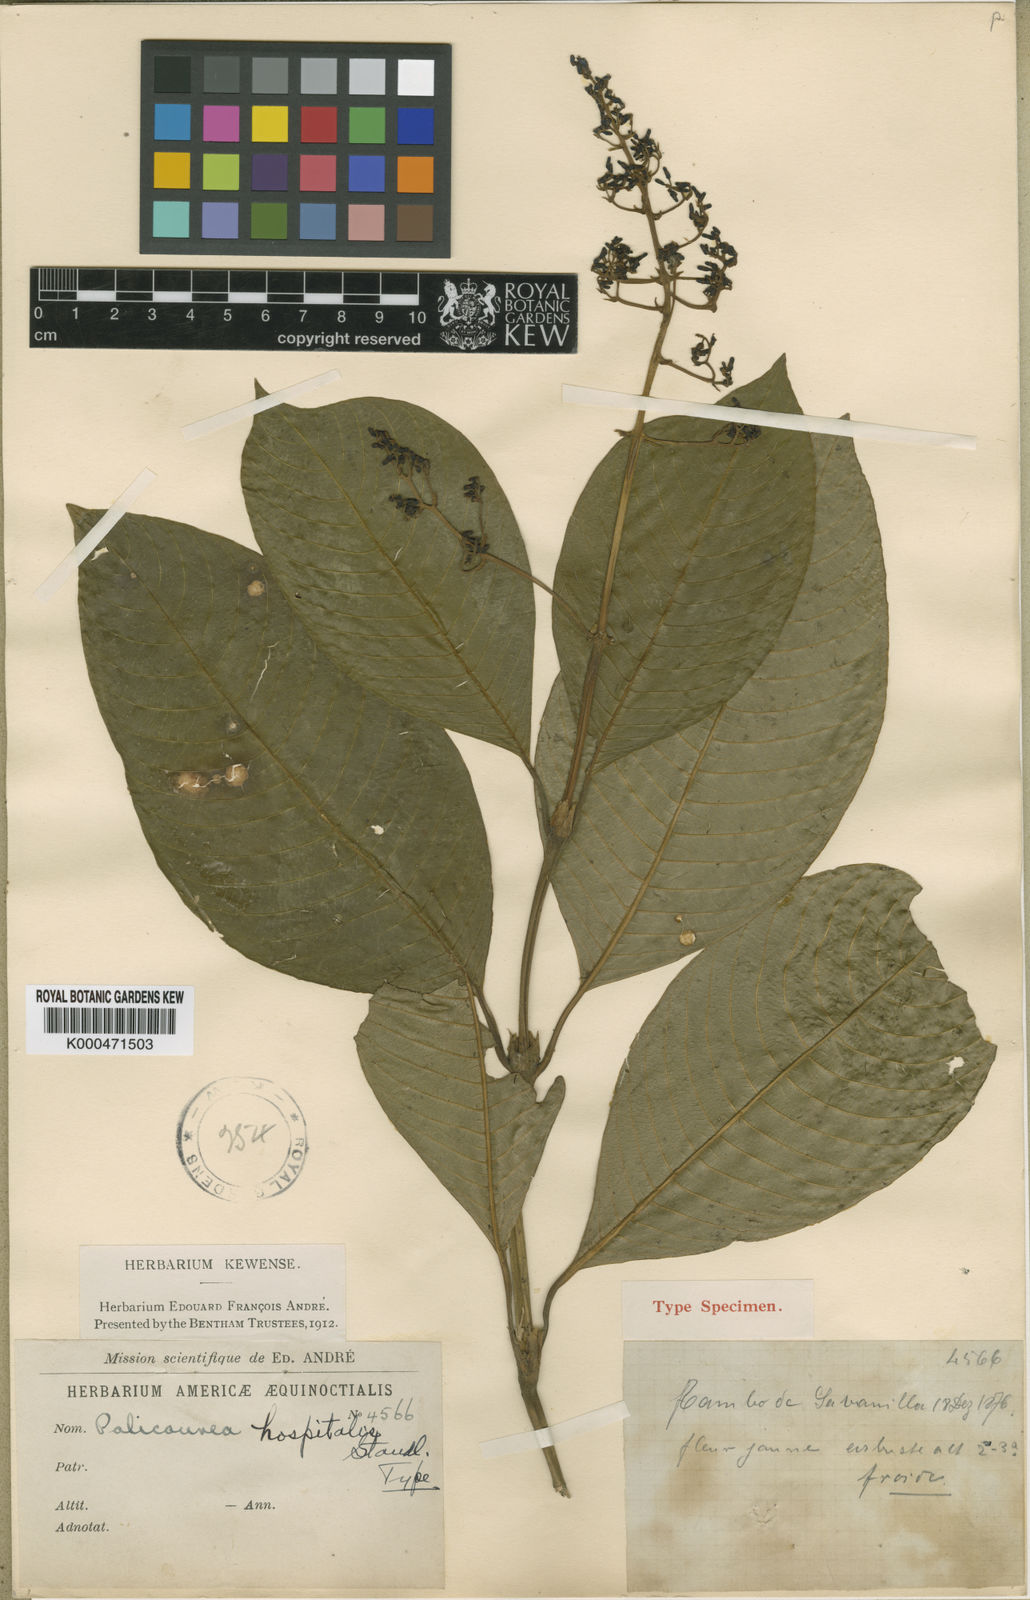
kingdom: Plantae
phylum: Tracheophyta
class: Magnoliopsida
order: Gentianales
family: Rubiaceae
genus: Palicourea
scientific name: Palicourea hospitalis
